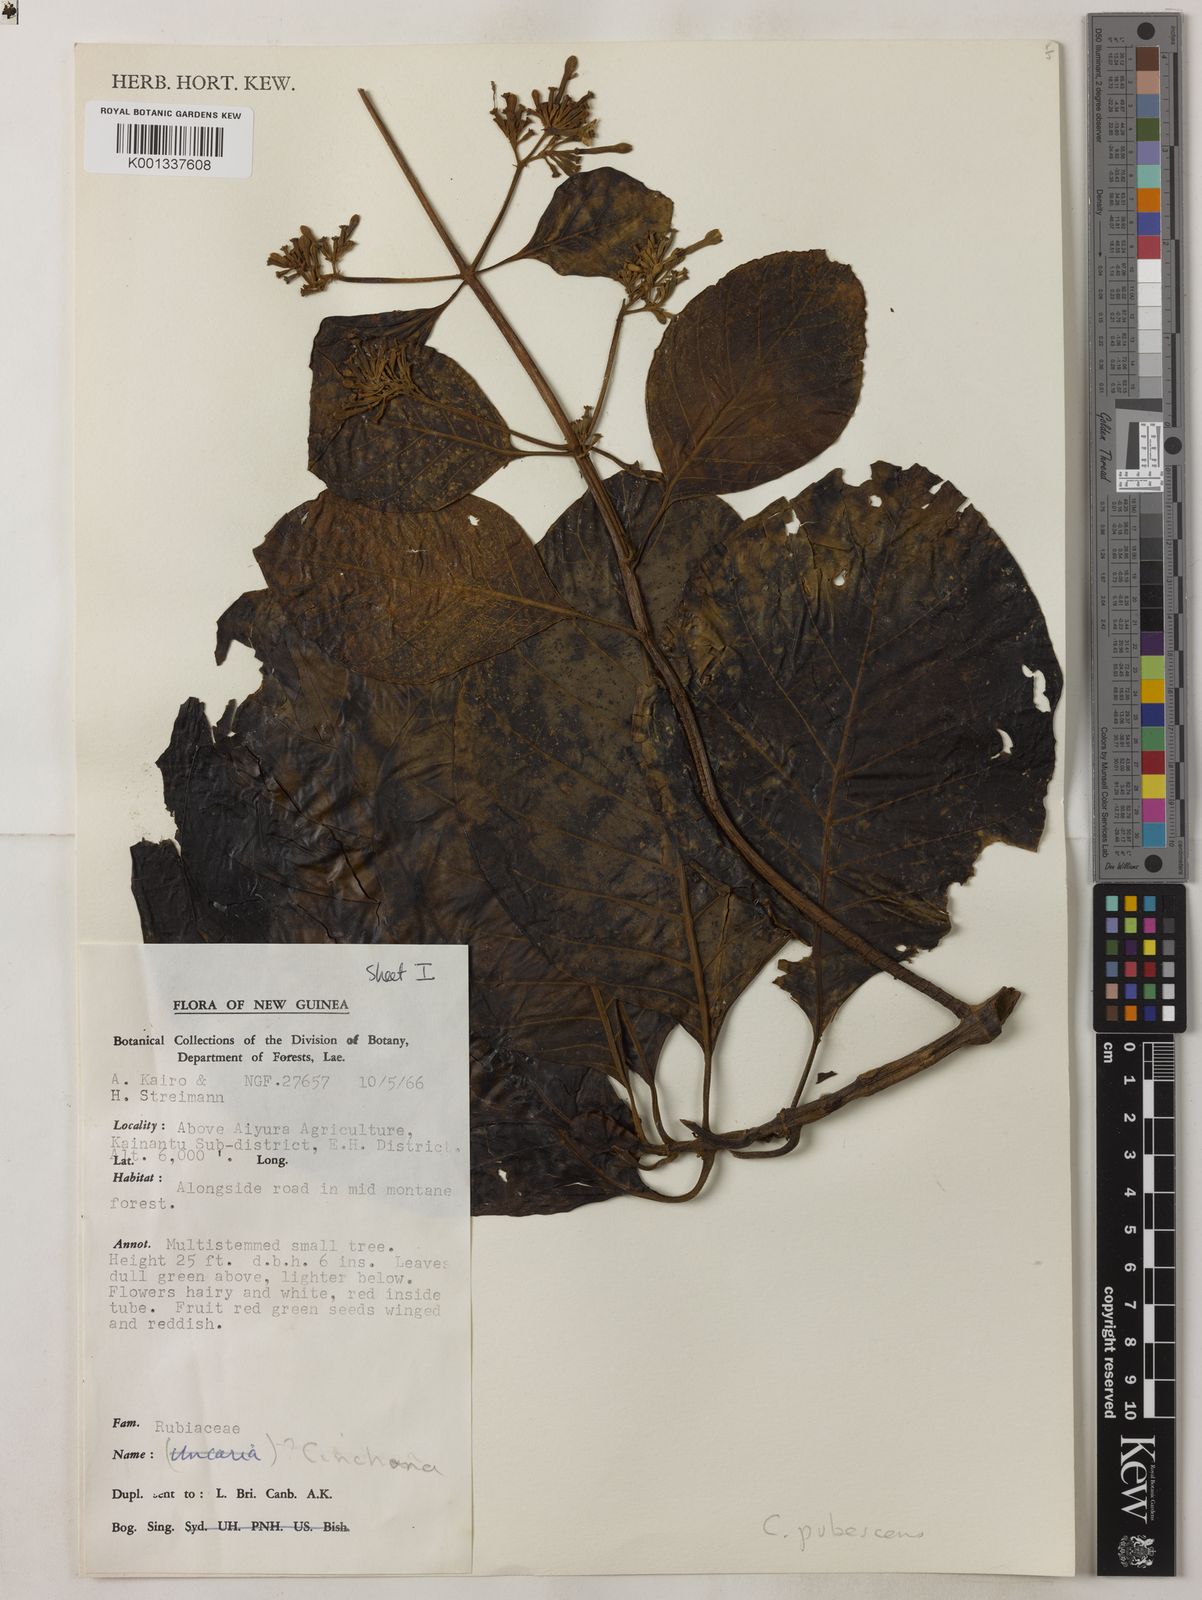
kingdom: Plantae
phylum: Tracheophyta
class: Magnoliopsida
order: Gentianales
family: Rubiaceae
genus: Cinchona
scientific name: Cinchona pubescens
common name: Quinine
